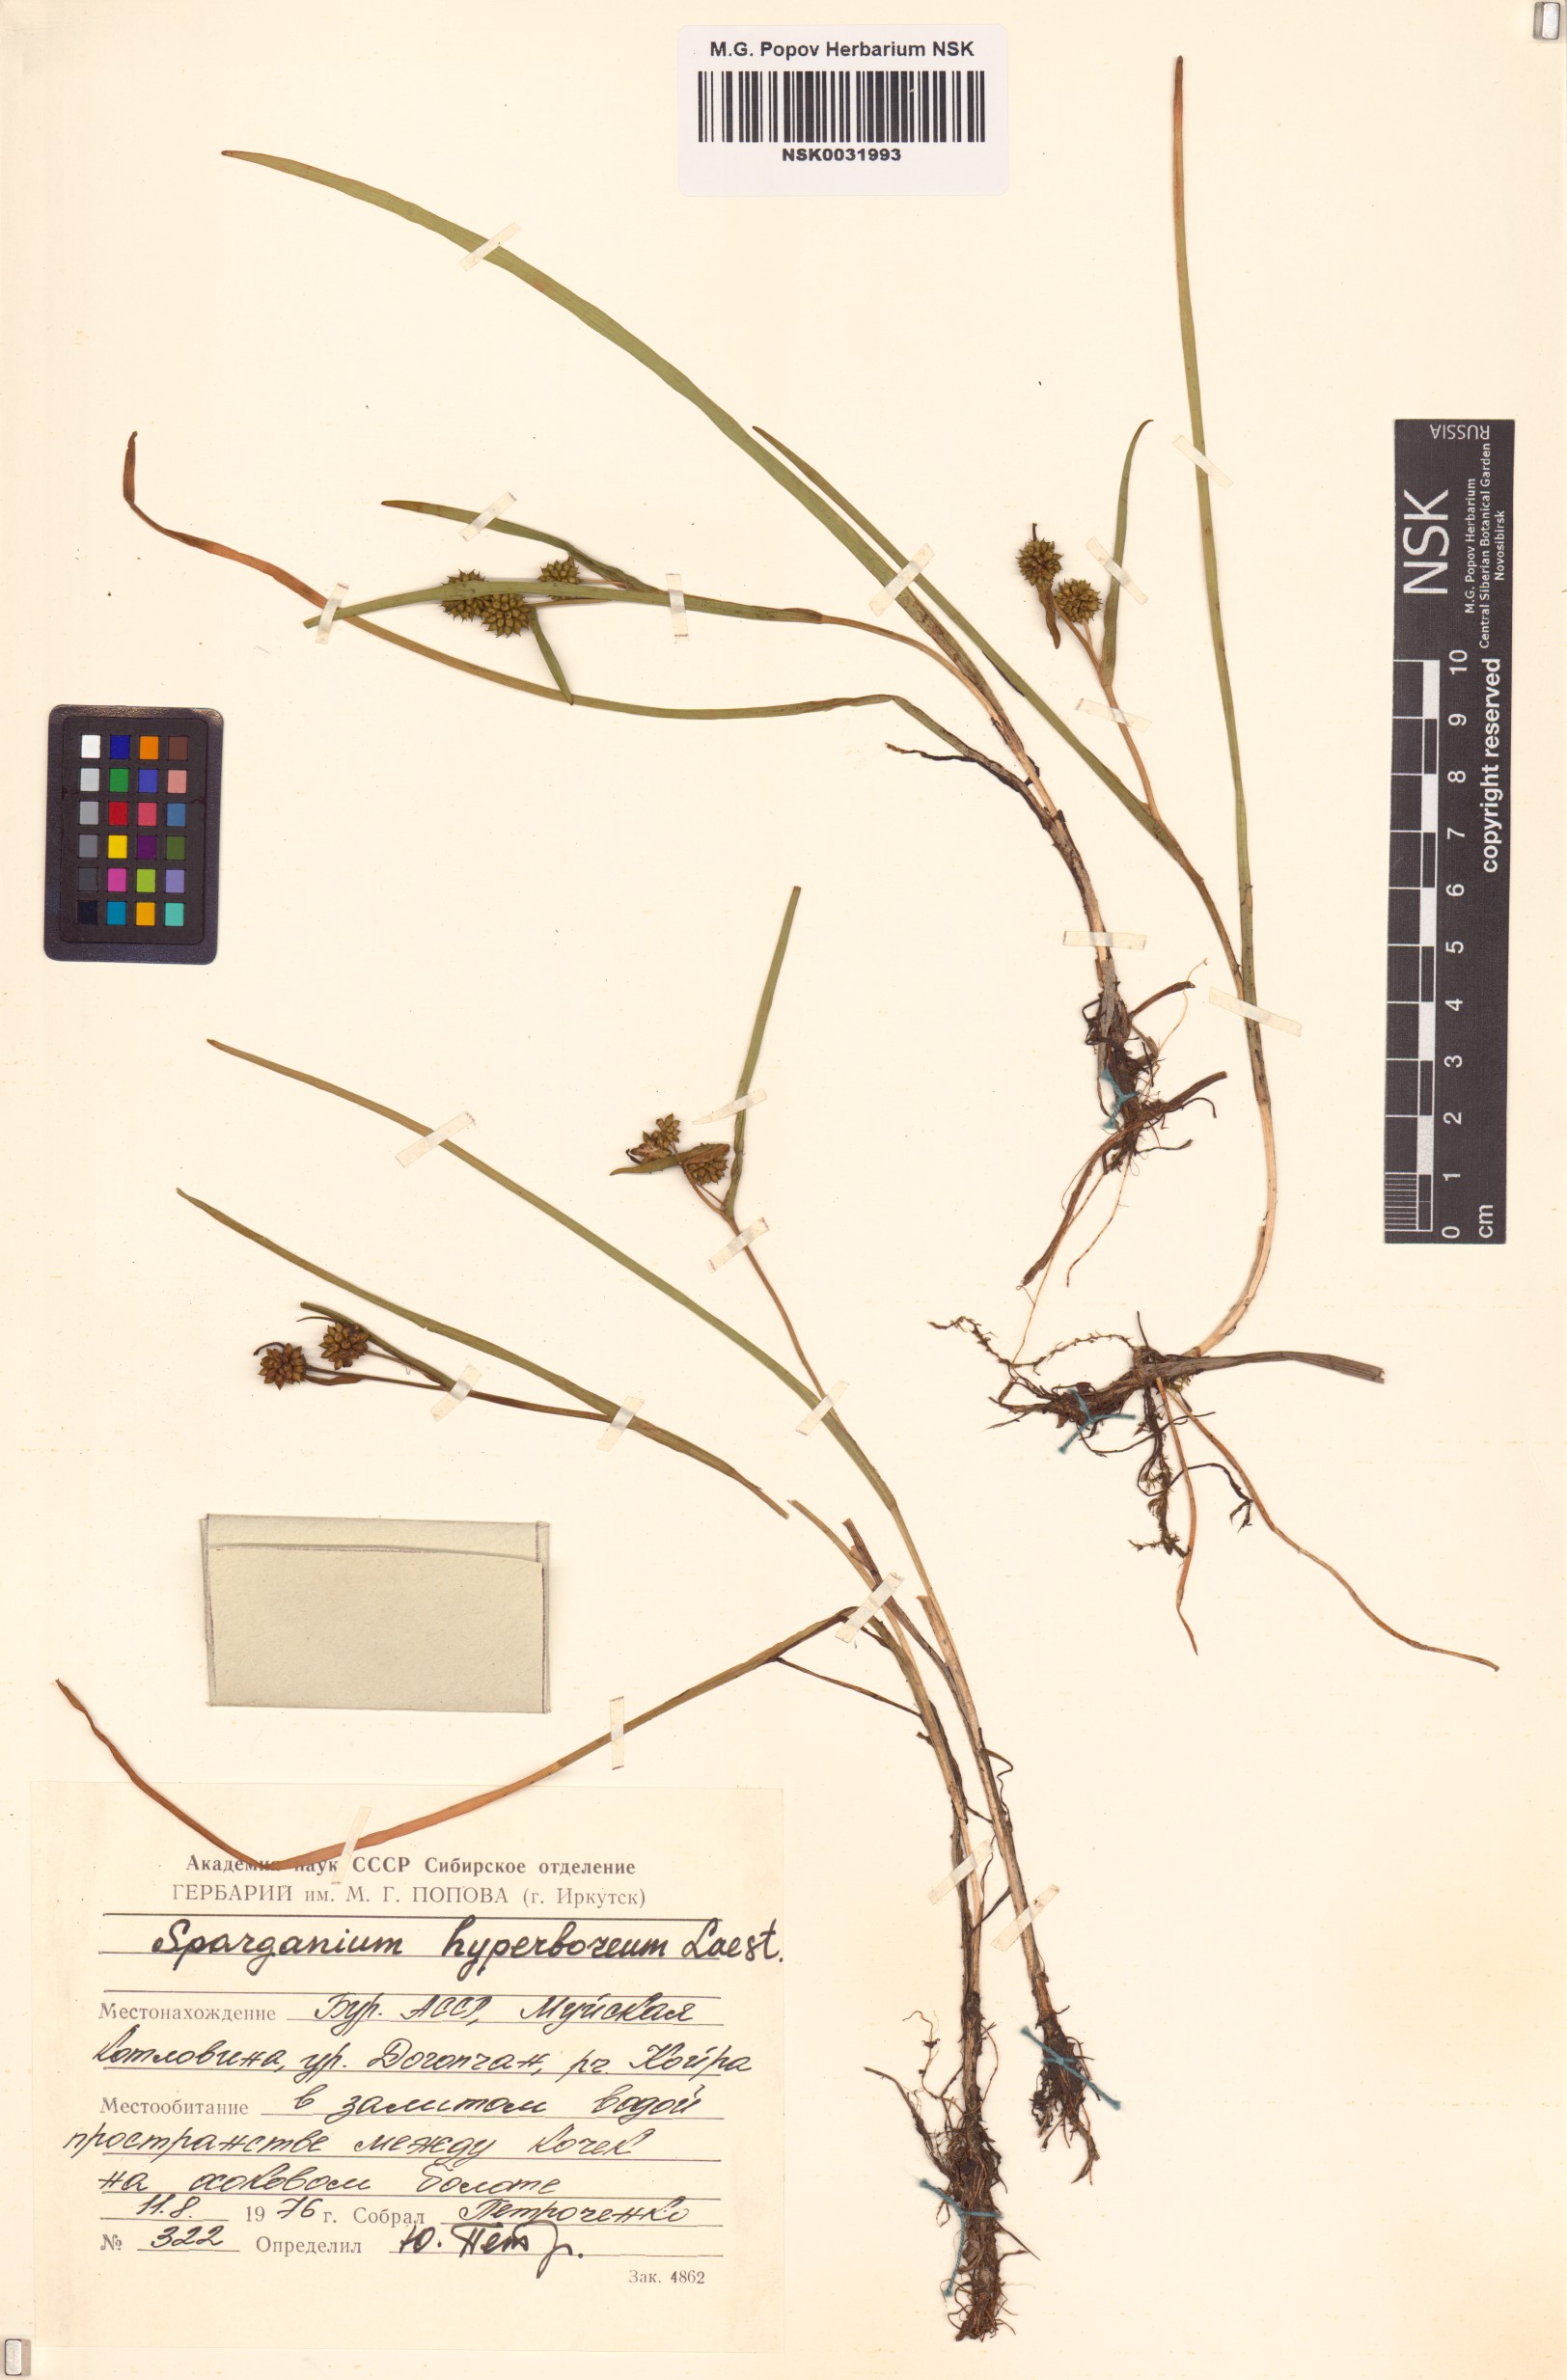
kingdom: Plantae
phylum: Tracheophyta
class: Liliopsida
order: Poales
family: Typhaceae
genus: Sparganium
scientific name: Sparganium hyperboreum
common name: Arctic burreed
